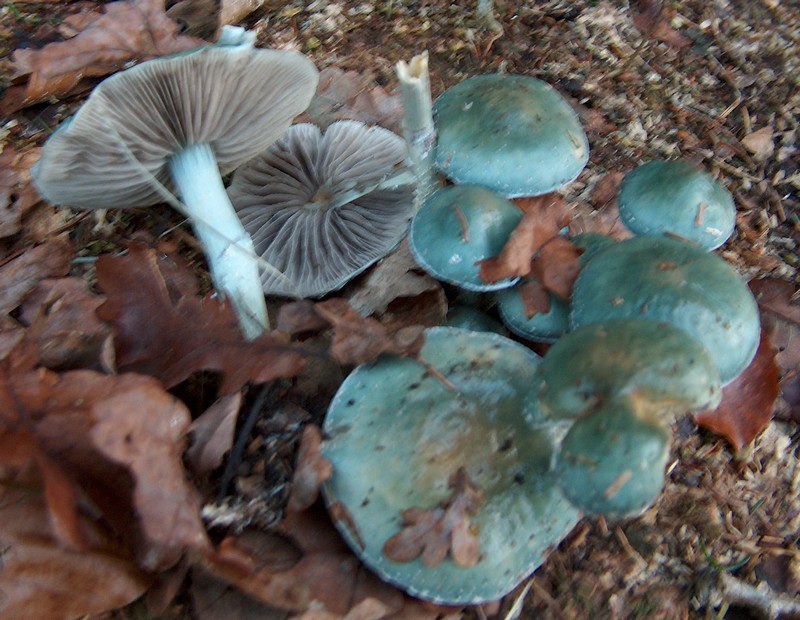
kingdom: Fungi
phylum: Basidiomycota
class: Agaricomycetes
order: Agaricales
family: Strophariaceae
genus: Stropharia
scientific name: Stropharia cyanea
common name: blågrøn bredblad
